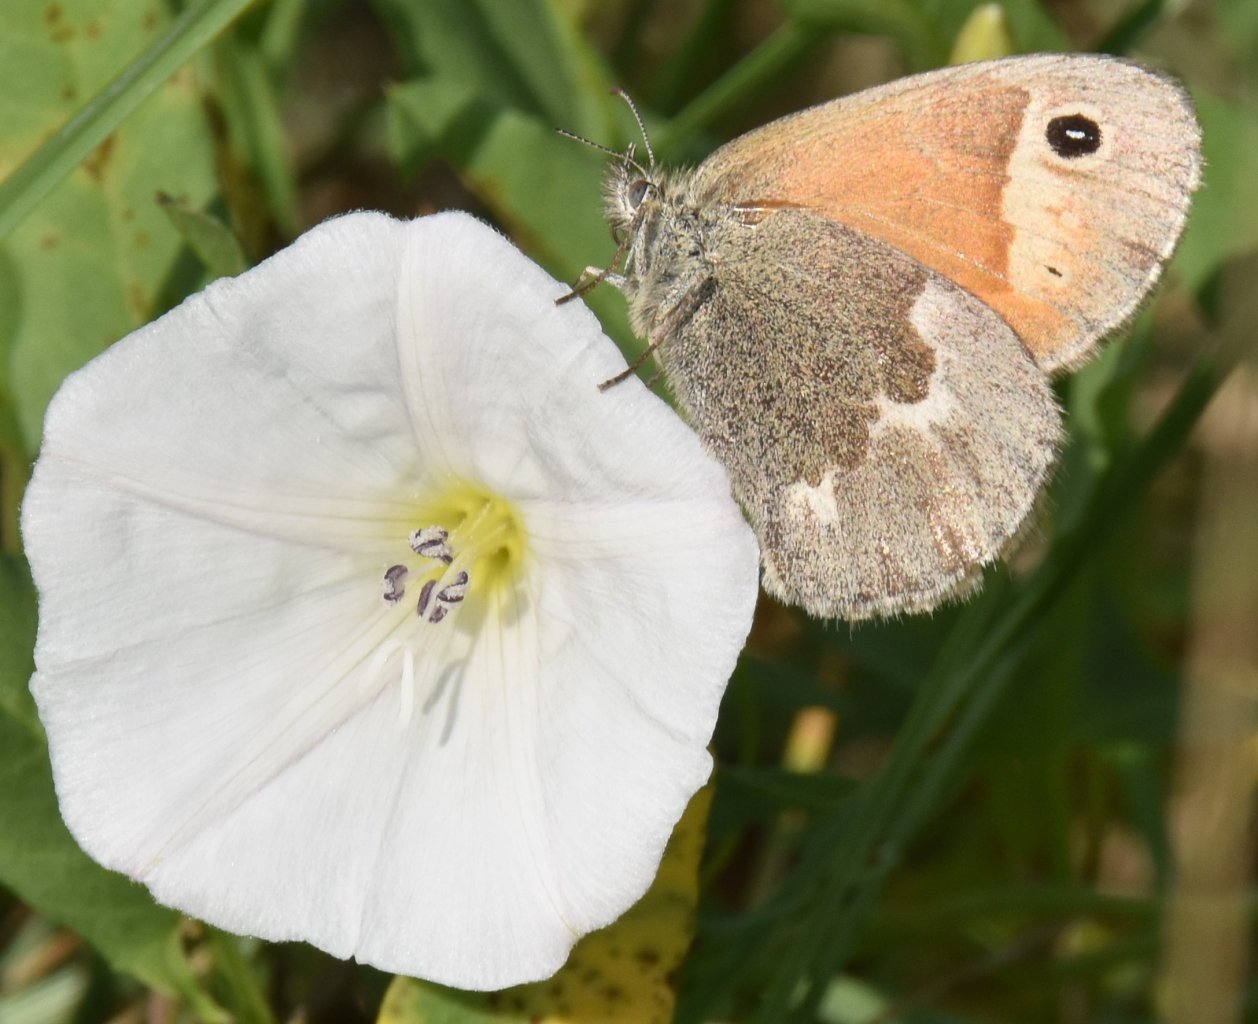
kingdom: Animalia
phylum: Arthropoda
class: Insecta
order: Lepidoptera
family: Nymphalidae
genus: Coenonympha
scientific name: Coenonympha tullia
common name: Large Heath
